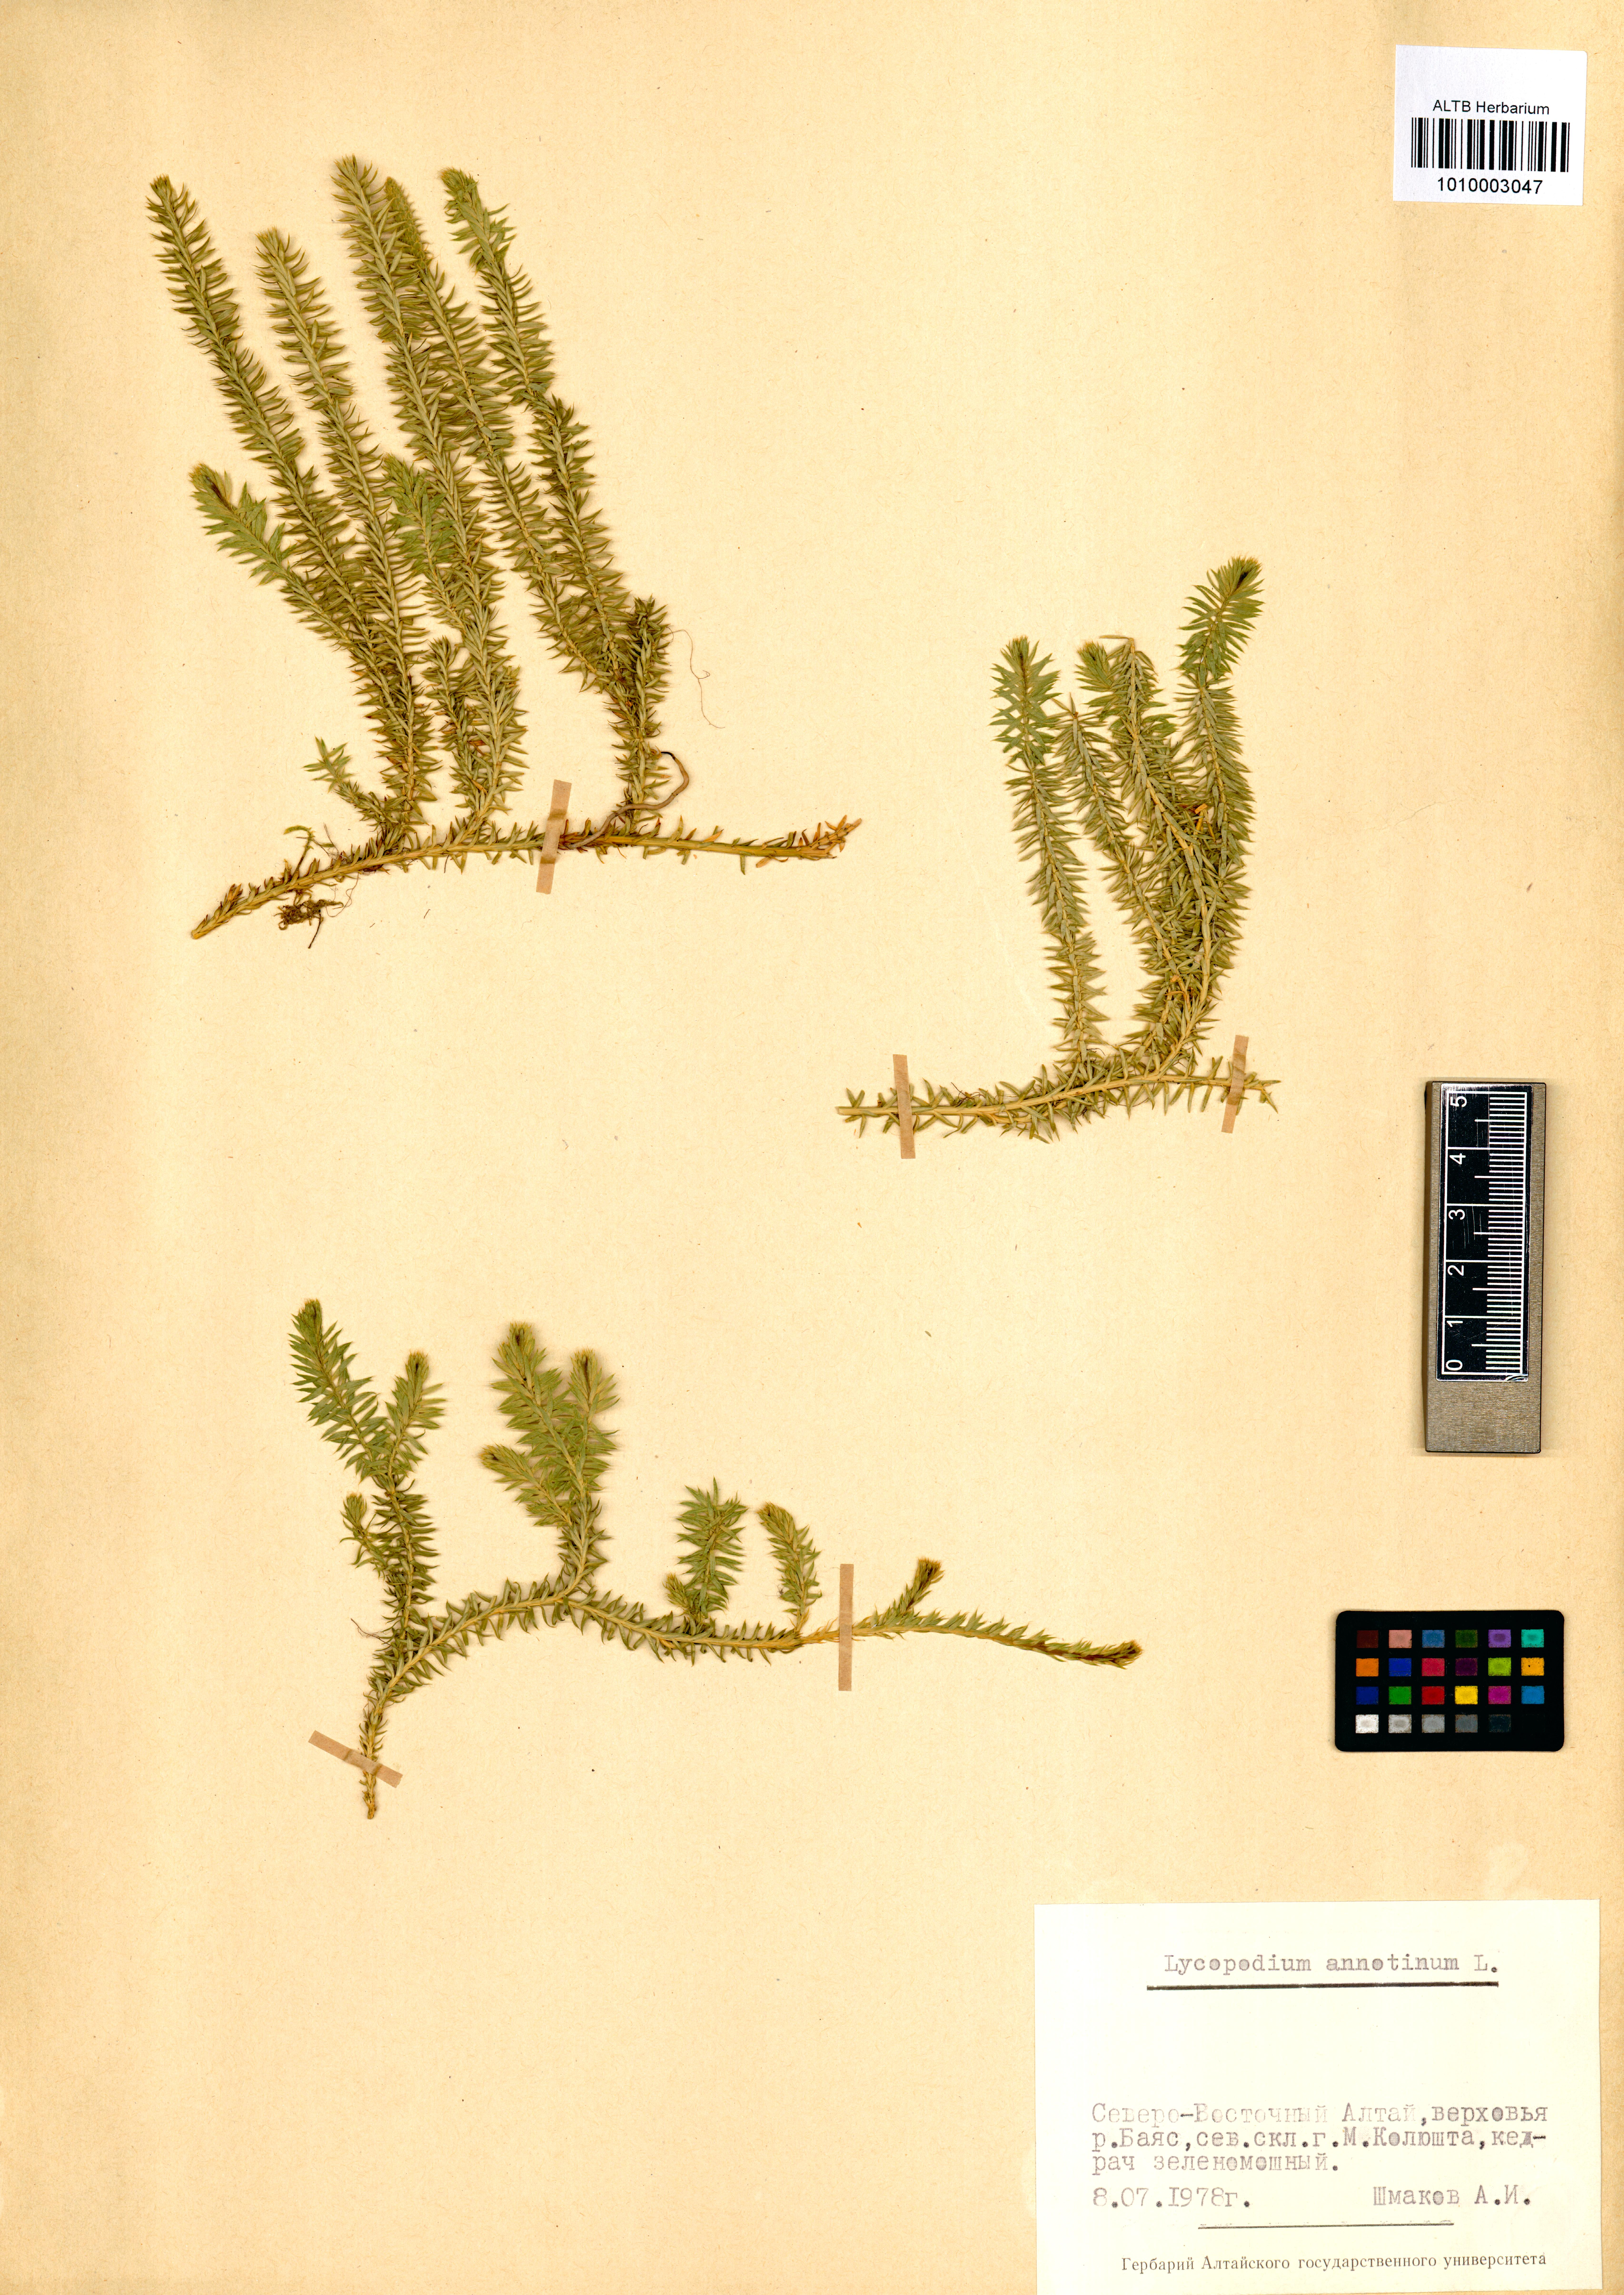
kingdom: Plantae
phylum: Tracheophyta
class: Lycopodiopsida
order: Lycopodiales
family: Lycopodiaceae
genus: Spinulum
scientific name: Spinulum annotinum
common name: Interrupted club-moss
